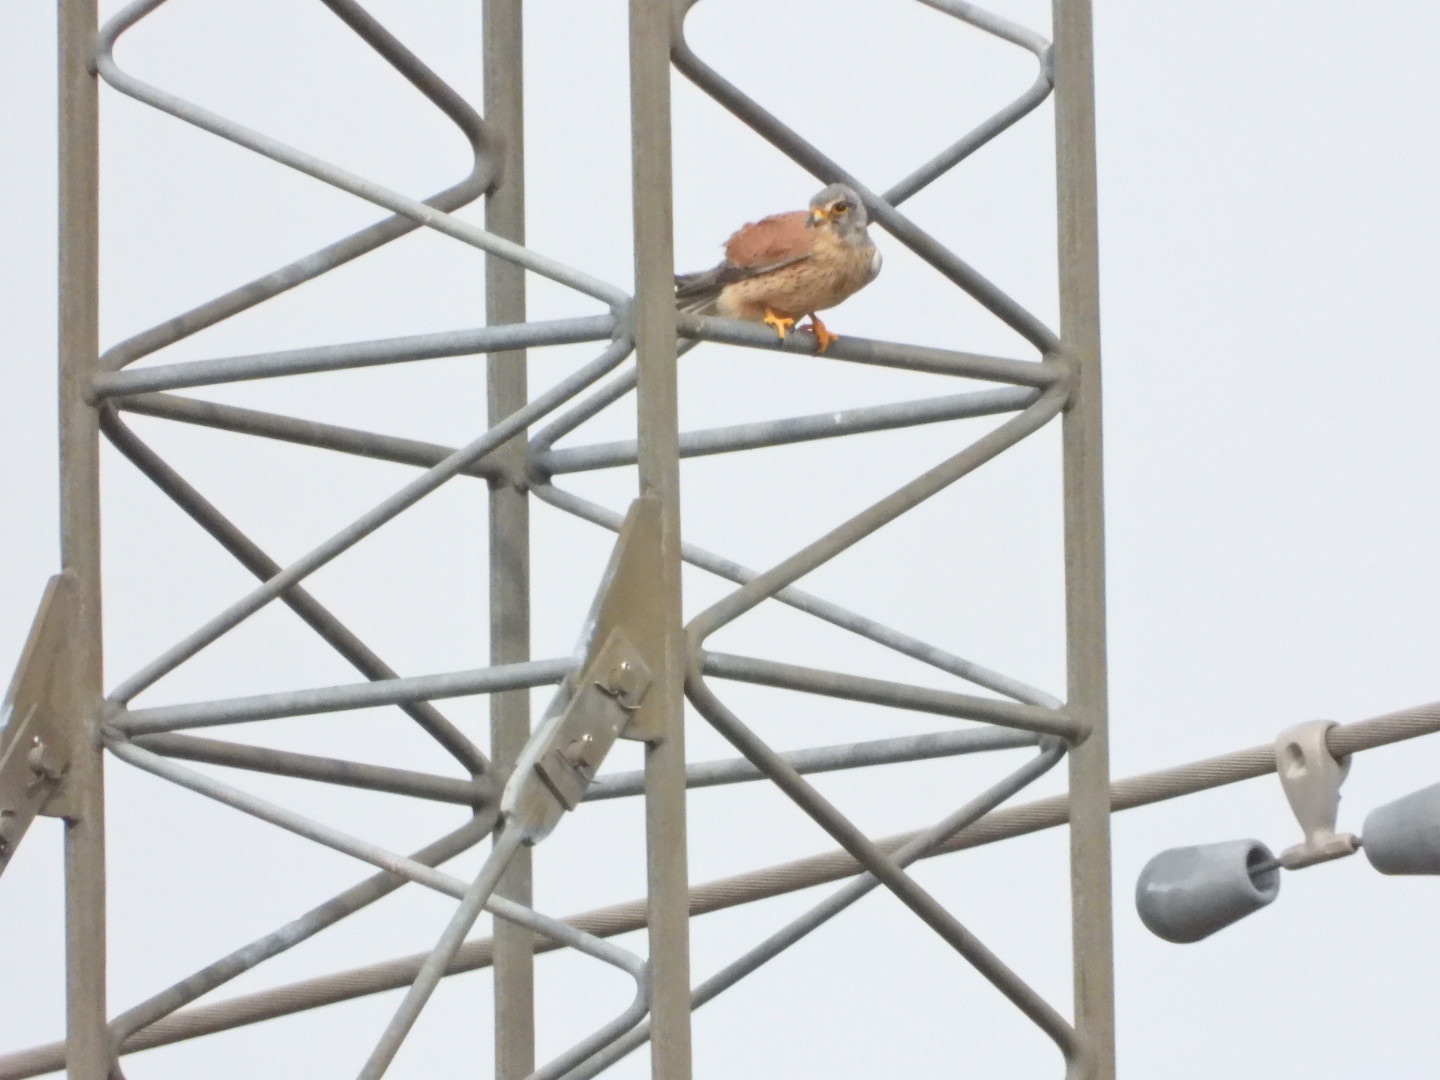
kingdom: Animalia
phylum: Chordata
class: Aves
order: Falconiformes
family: Falconidae
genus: Falco
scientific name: Falco tinnunculus
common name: Tårnfalk
